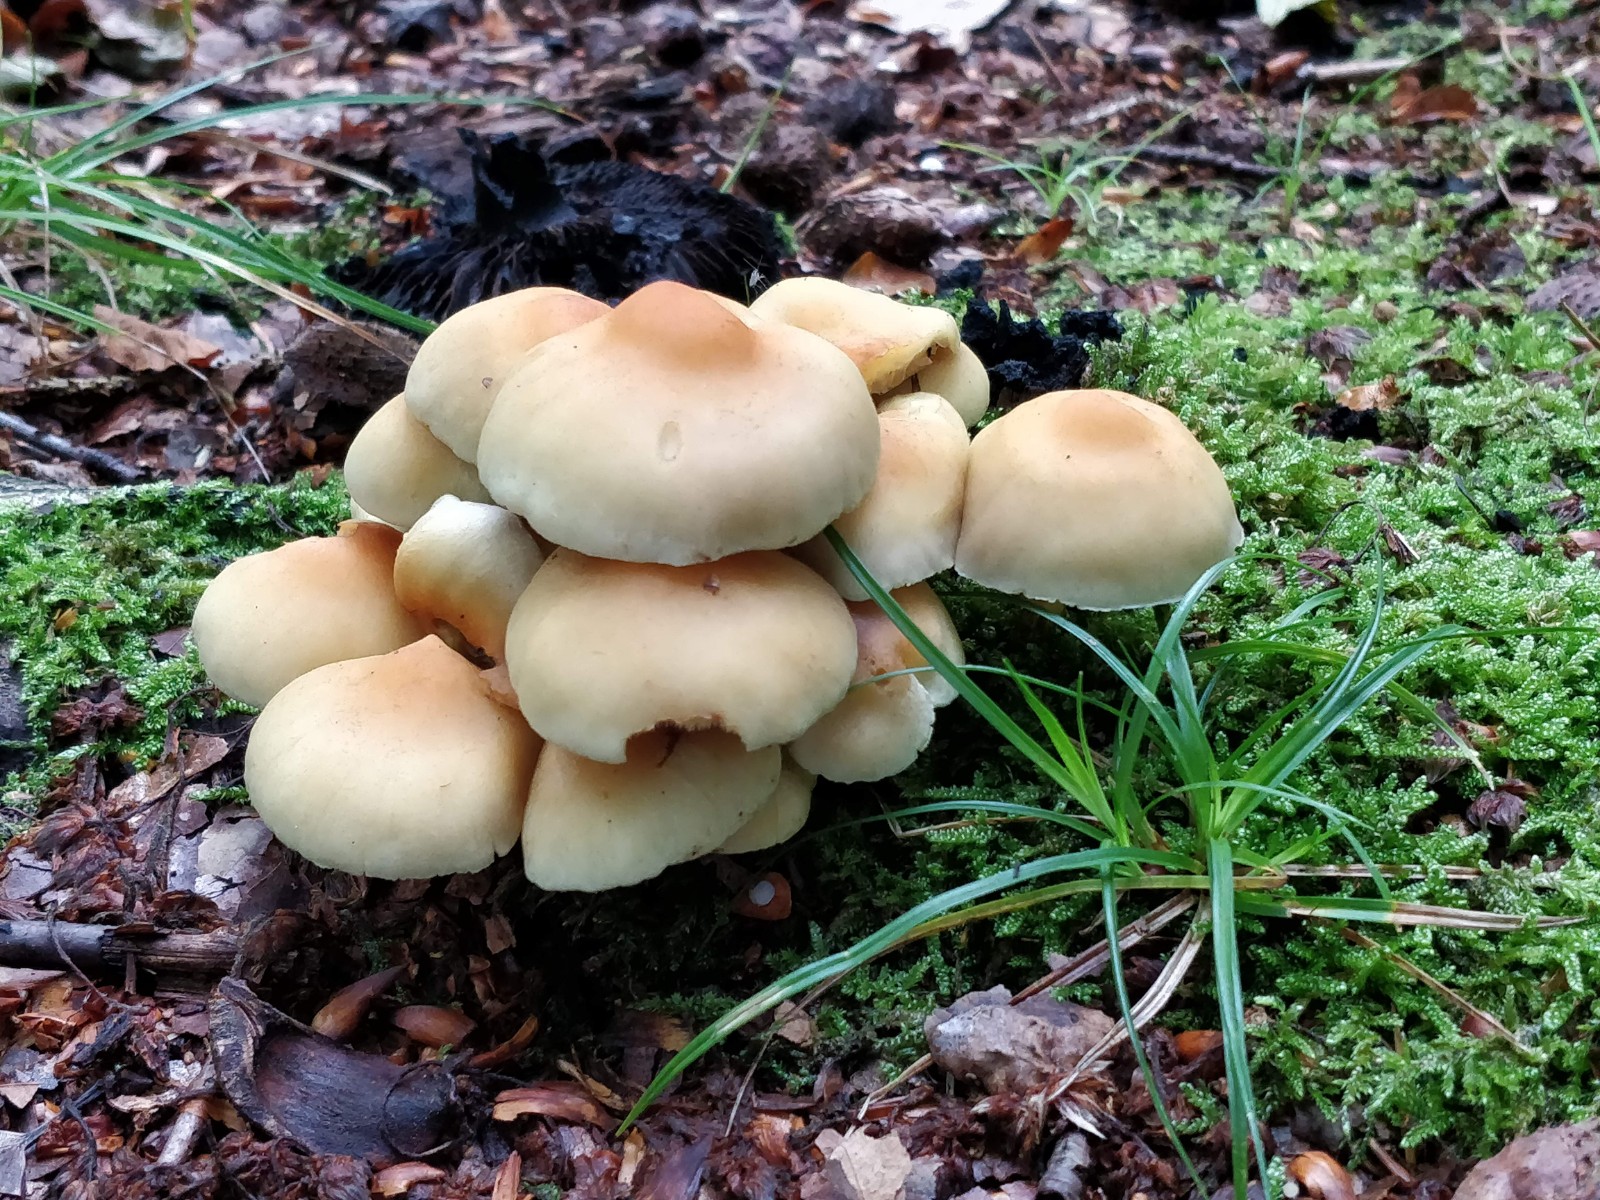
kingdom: Fungi
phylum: Basidiomycota
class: Agaricomycetes
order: Agaricales
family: Strophariaceae
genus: Hypholoma
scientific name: Hypholoma fasciculare
